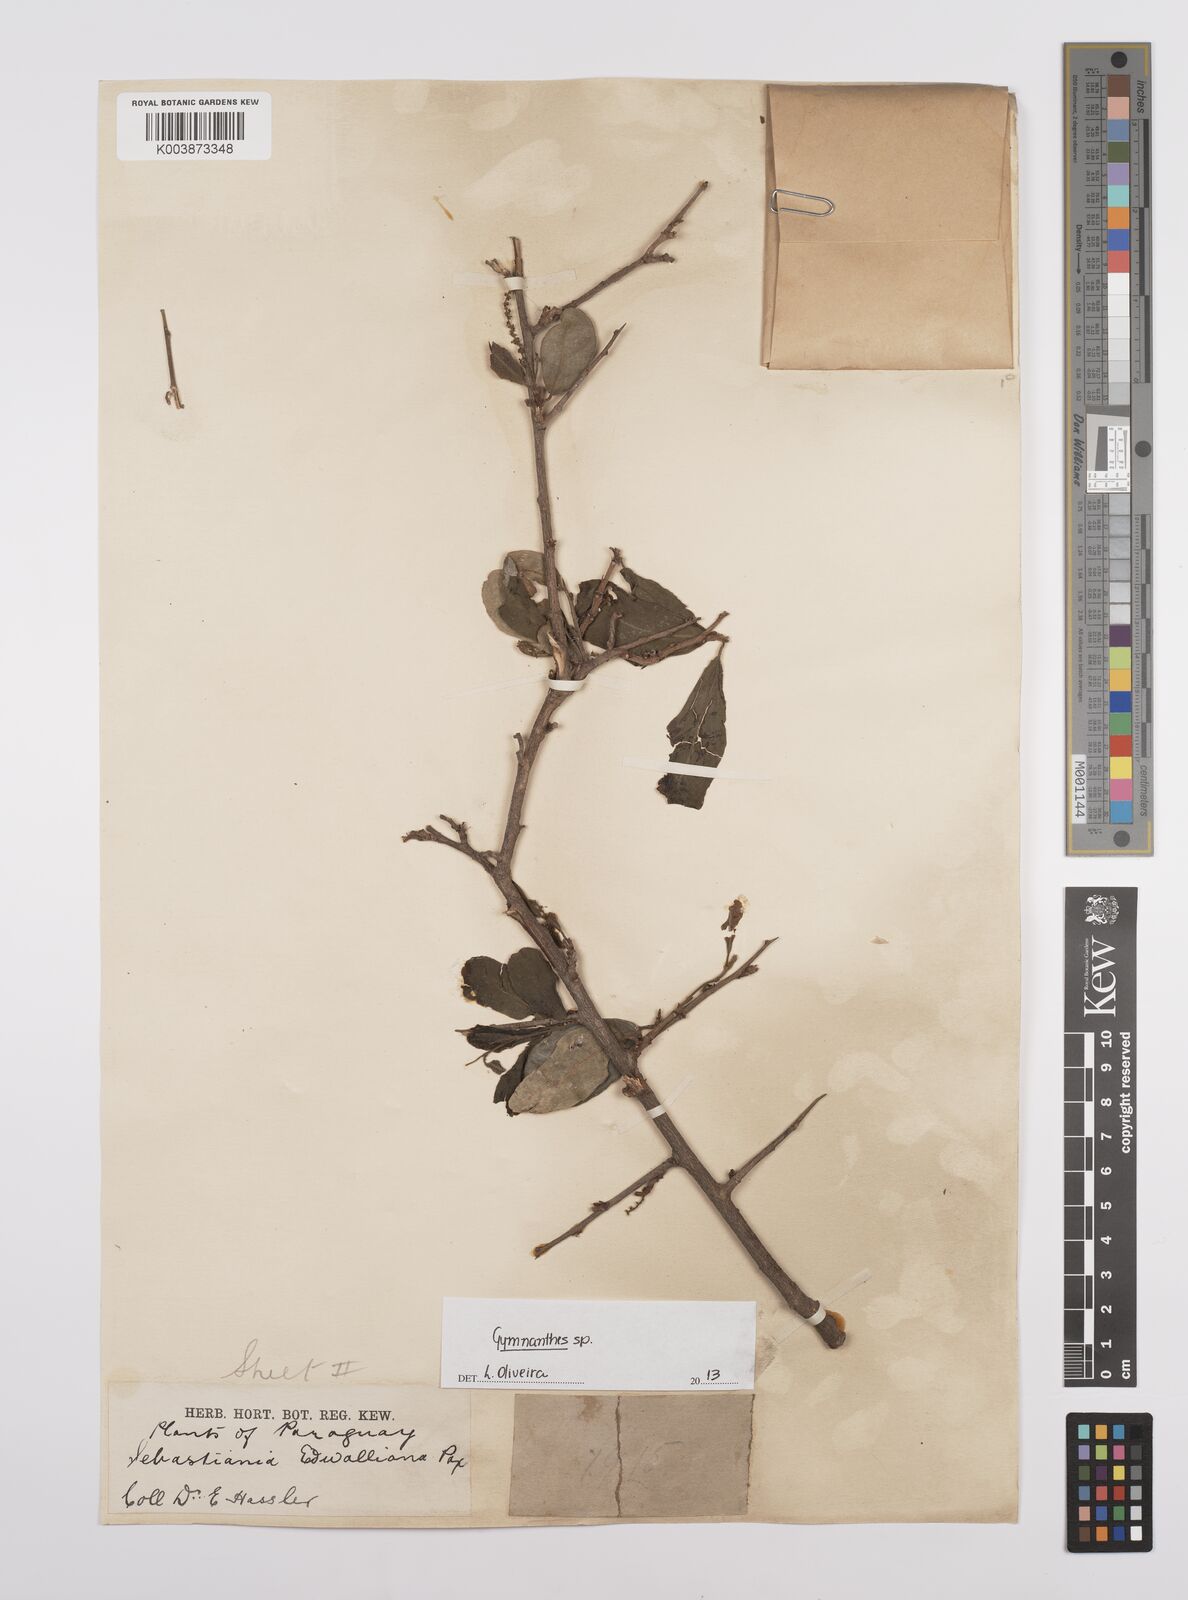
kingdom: Plantae
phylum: Tracheophyta
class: Magnoliopsida
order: Malpighiales
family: Euphorbiaceae
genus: Gymnanthes
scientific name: Gymnanthes
